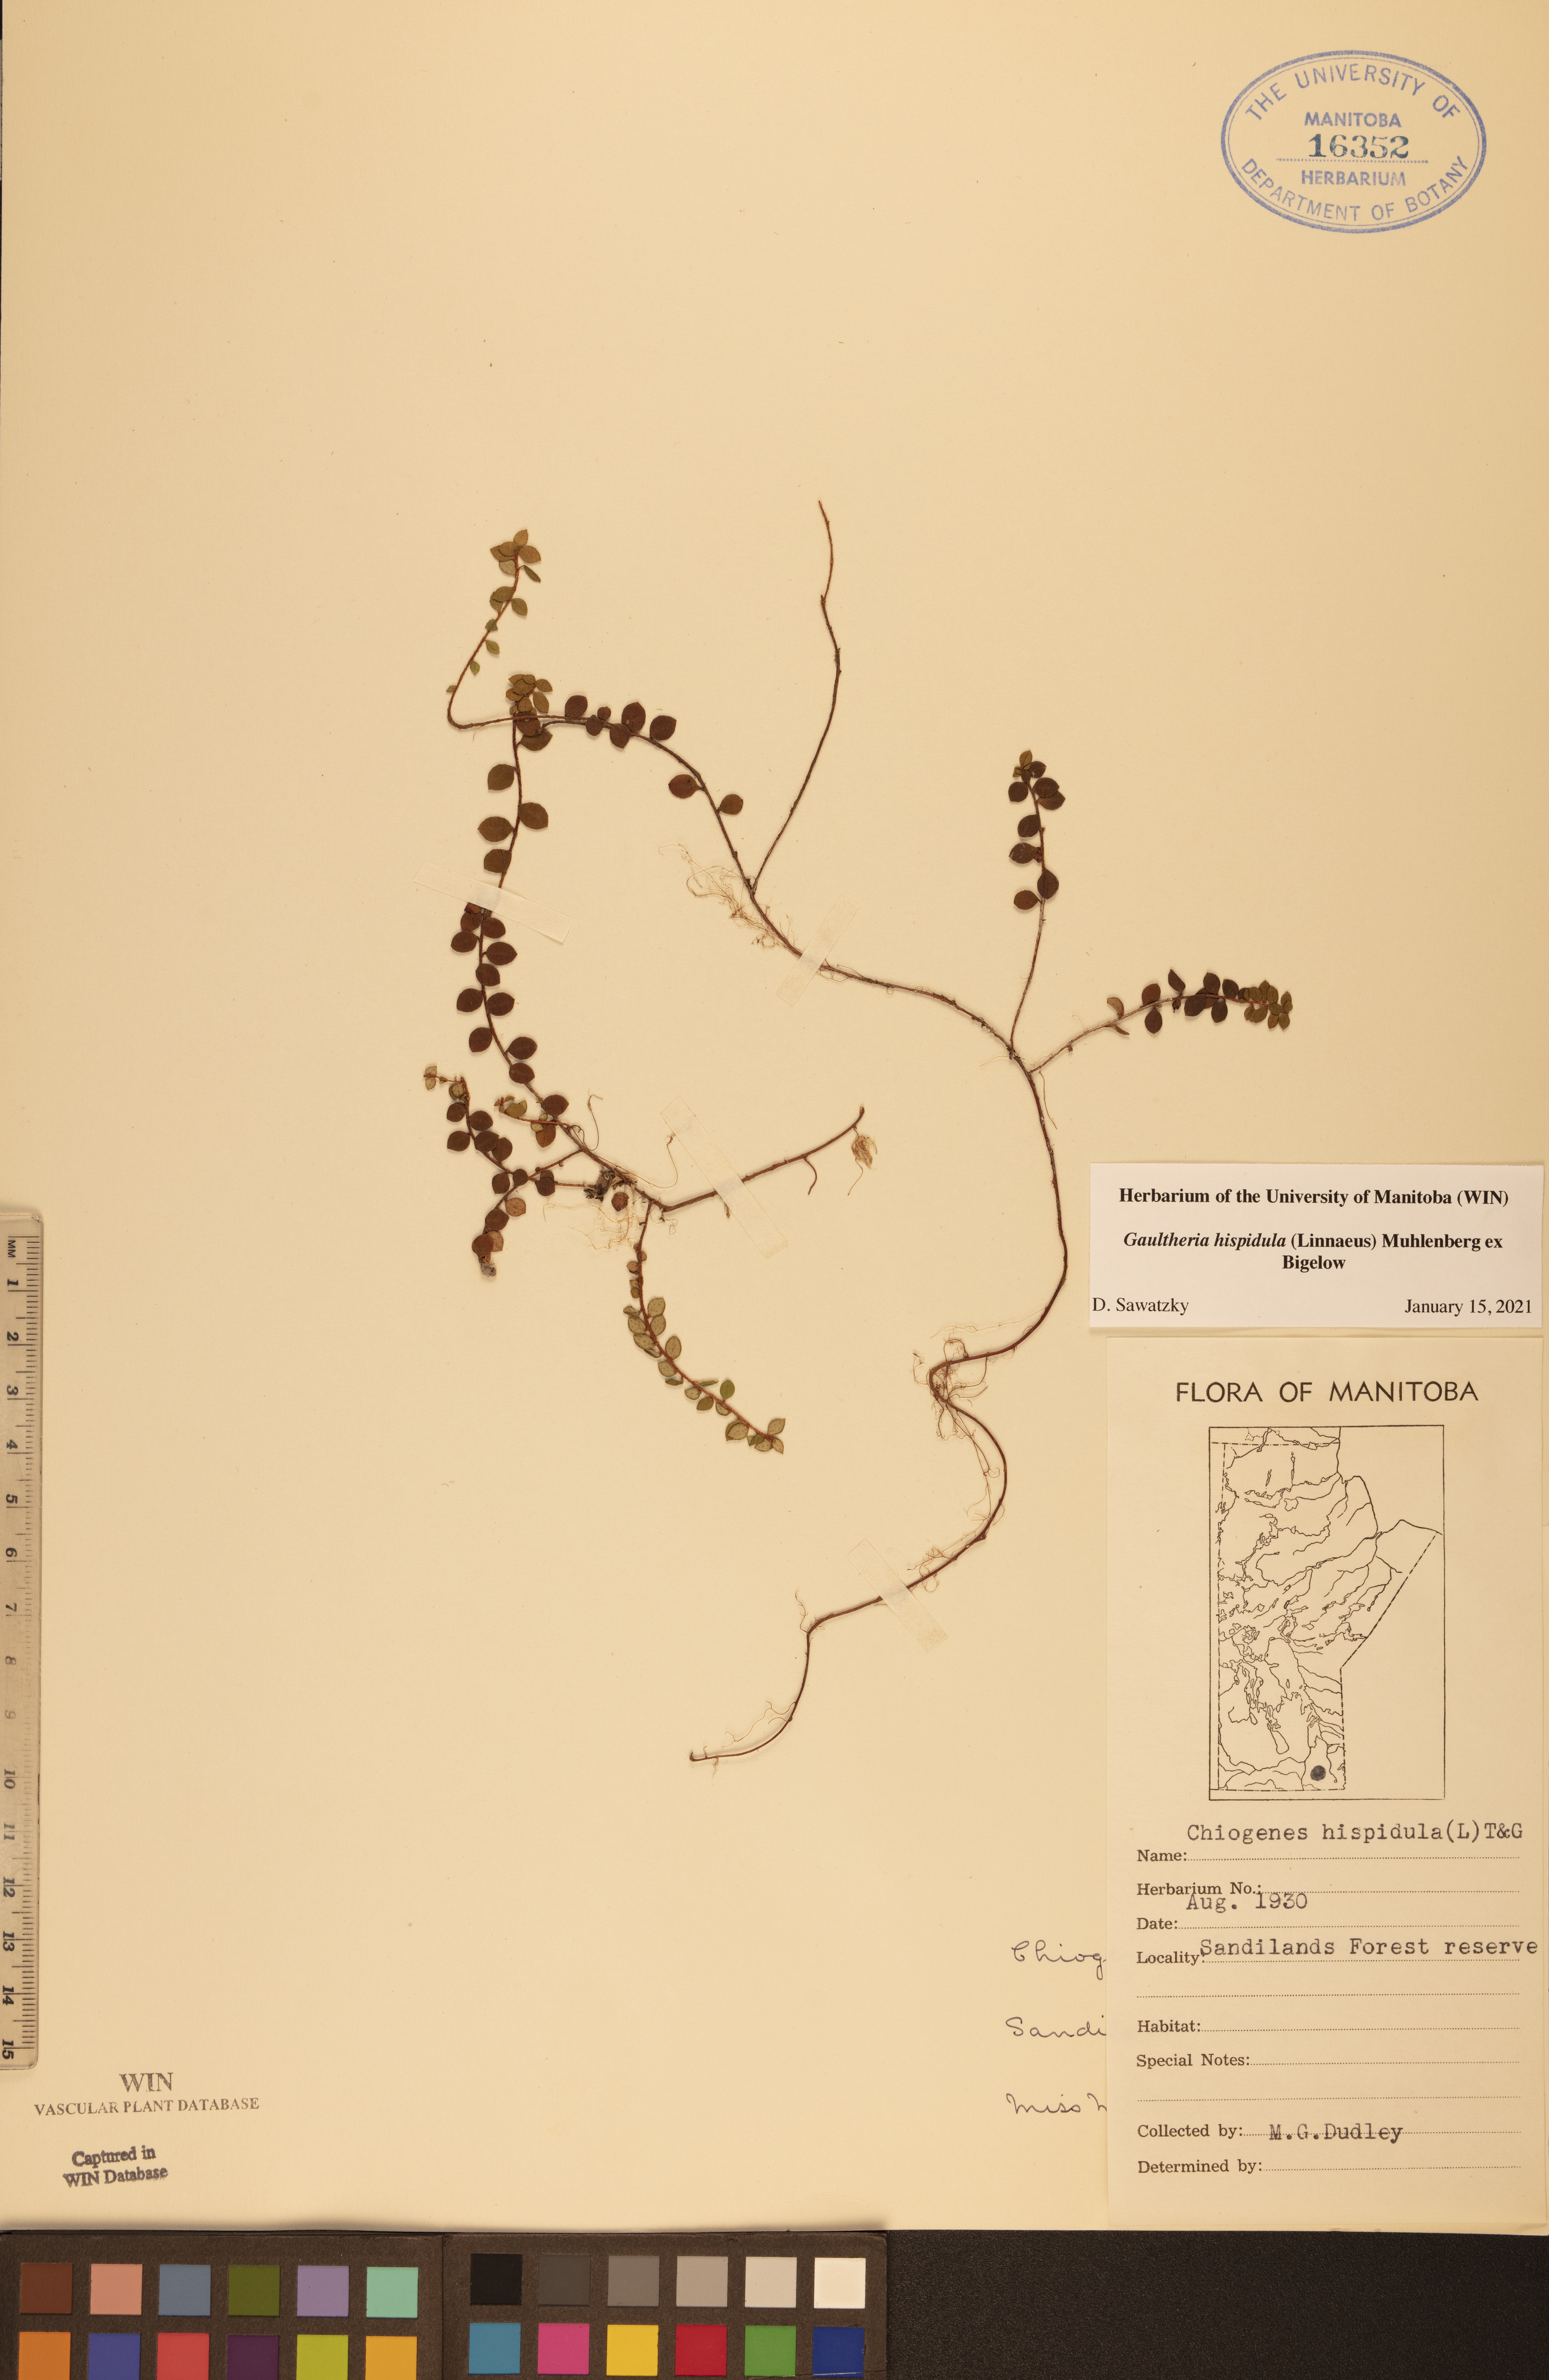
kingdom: Plantae
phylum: Tracheophyta
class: Magnoliopsida
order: Ericales
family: Ericaceae
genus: Gaultheria
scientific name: Gaultheria hispidula
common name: Cancer wintergreen
